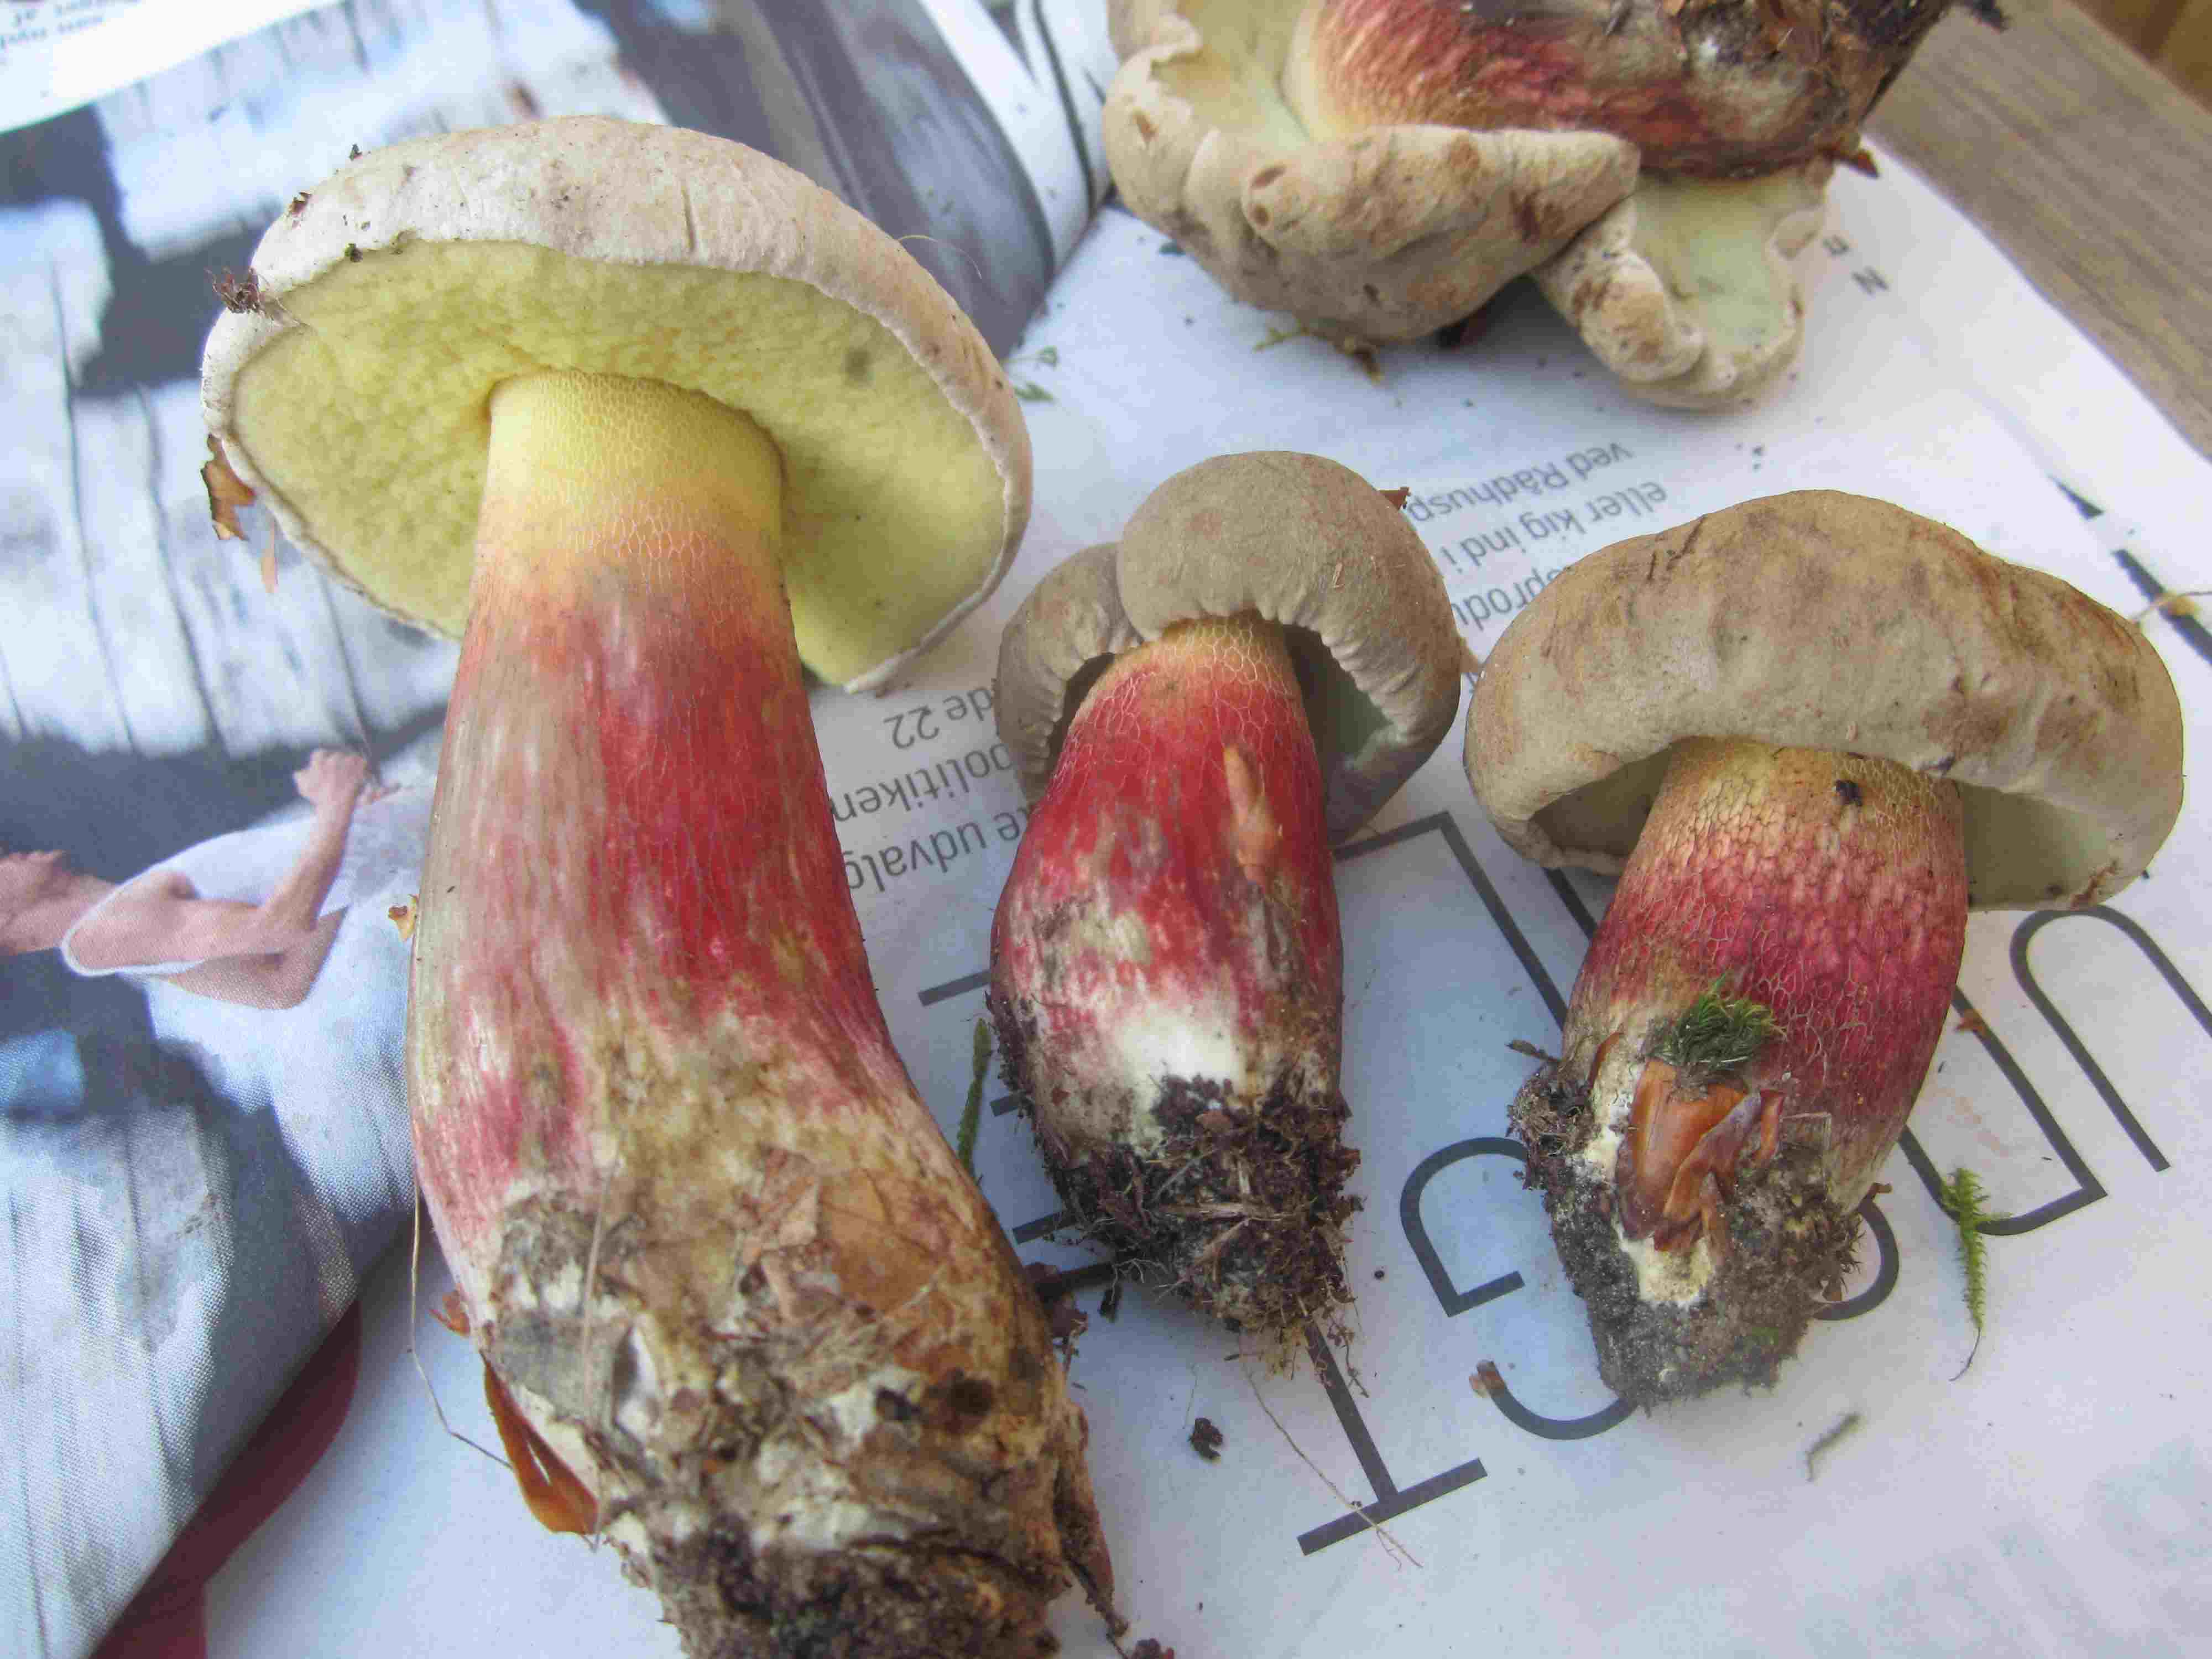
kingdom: Fungi
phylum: Basidiomycota
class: Agaricomycetes
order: Boletales
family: Boletaceae
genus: Caloboletus
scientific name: Caloboletus calopus
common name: skønfodet rørhat
